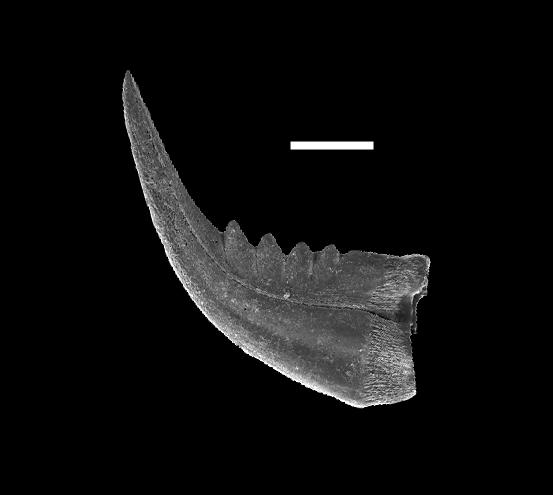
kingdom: Animalia
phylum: Chordata
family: Panderodontidae
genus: Belodina
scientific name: Belodina
